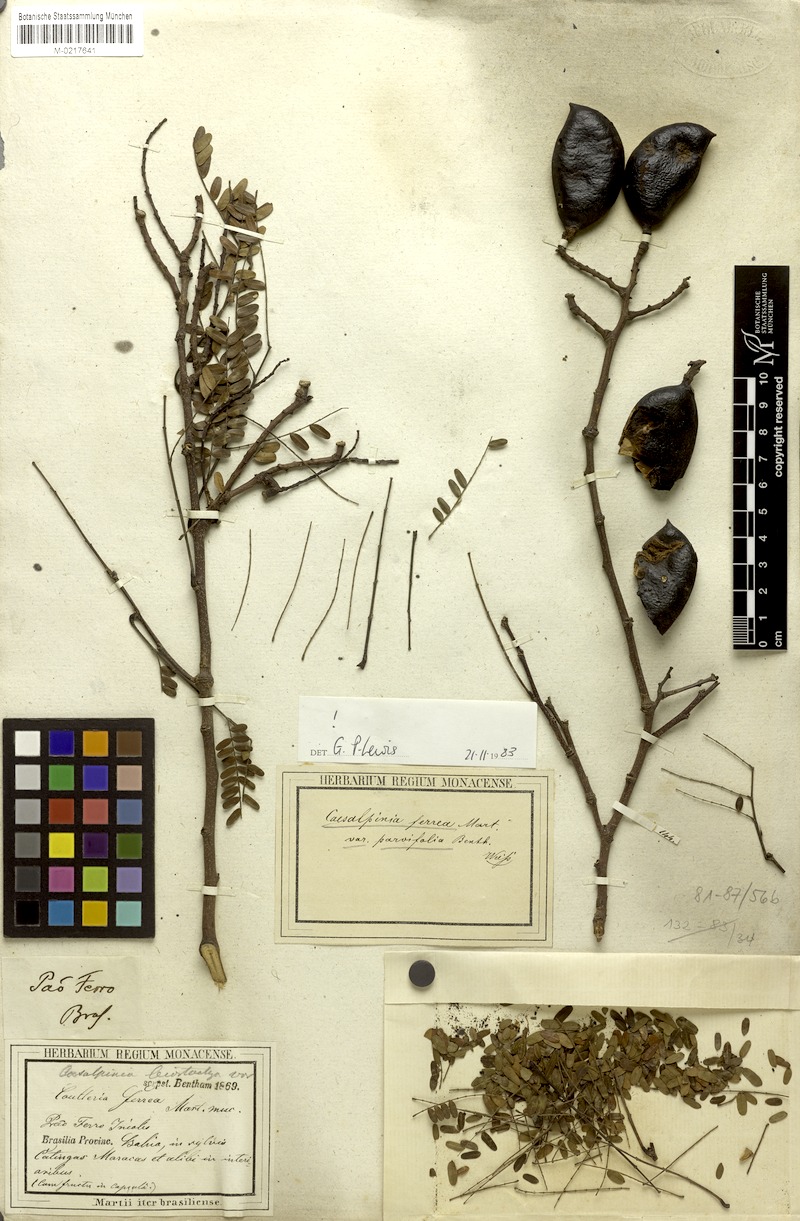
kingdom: Plantae
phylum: Tracheophyta
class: Magnoliopsida
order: Fabales
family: Fabaceae
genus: Libidibia
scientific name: Libidibia ferrea
